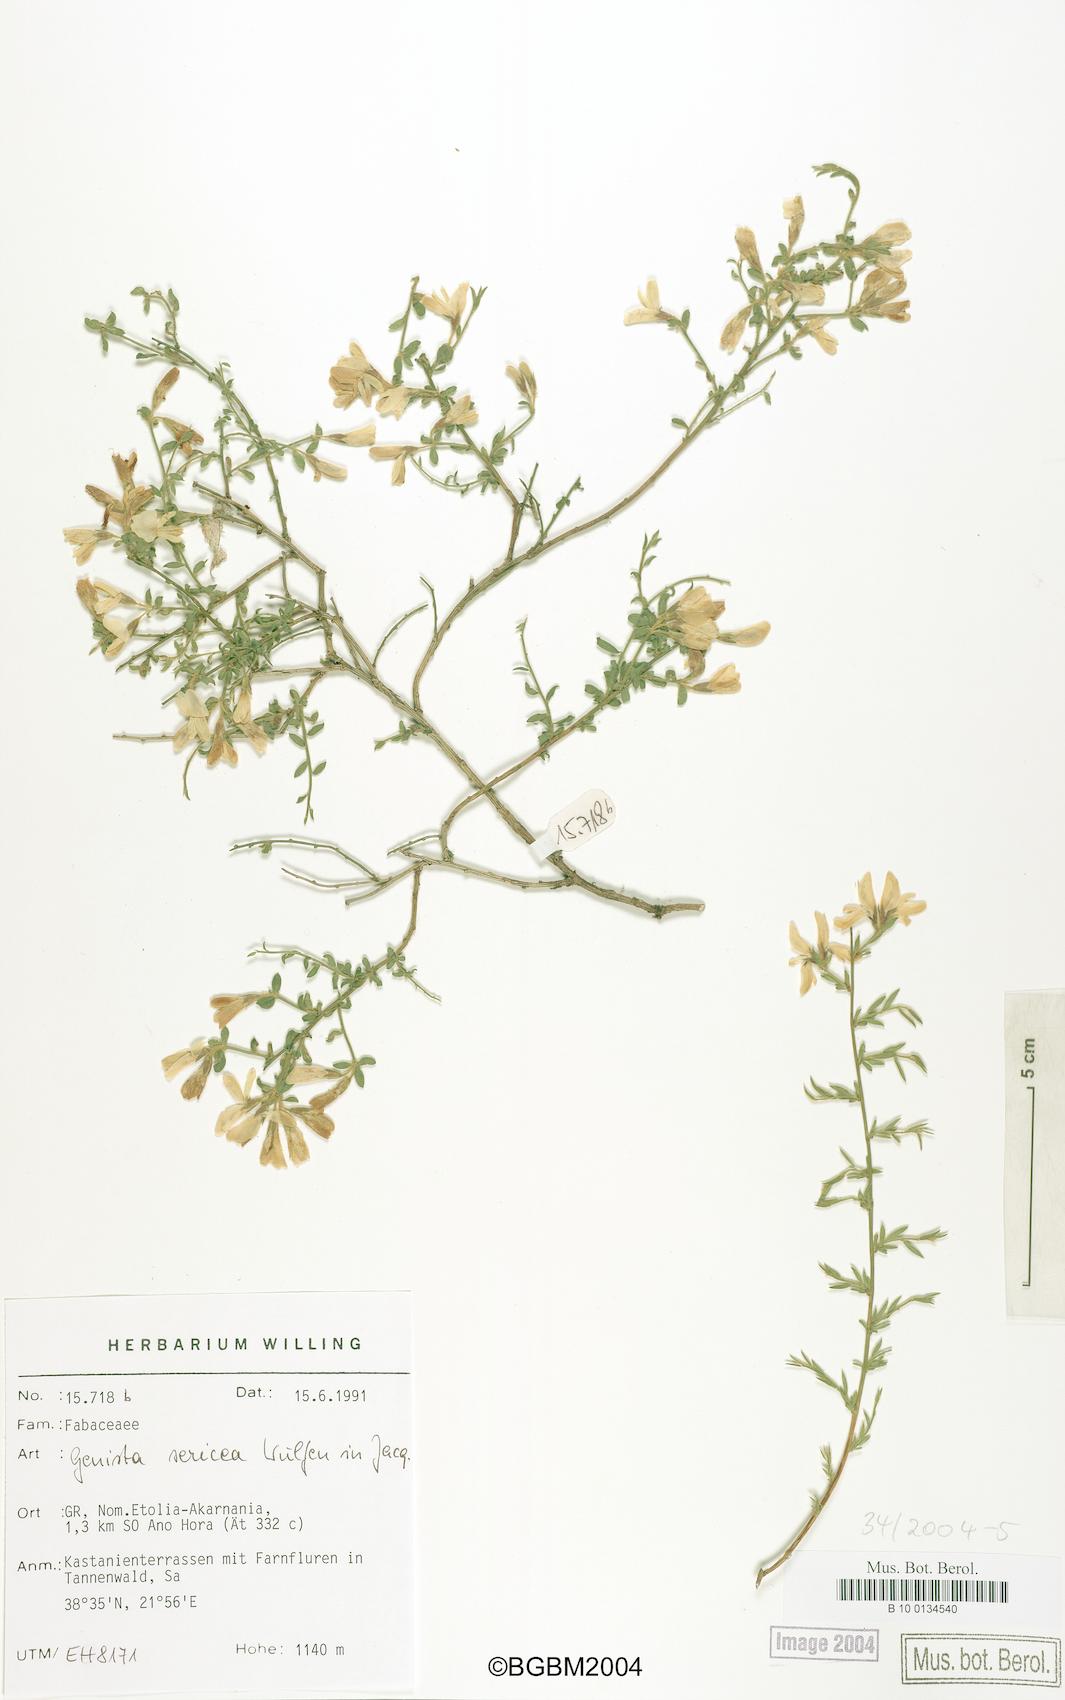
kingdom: Plantae
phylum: Tracheophyta
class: Magnoliopsida
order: Fabales
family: Fabaceae
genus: Genista
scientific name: Genista sericea
